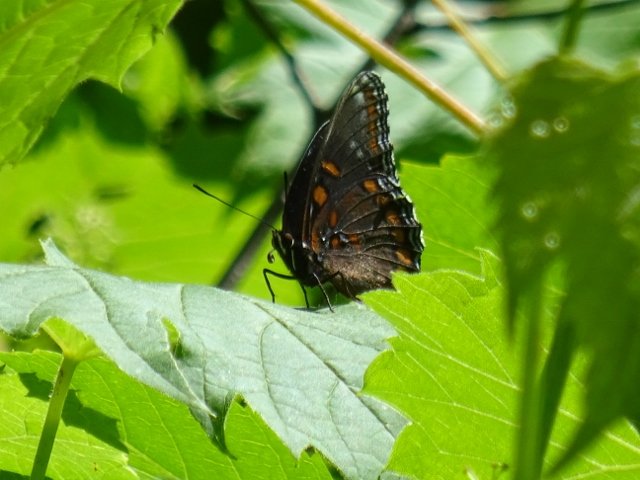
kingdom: Animalia
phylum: Arthropoda
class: Insecta
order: Lepidoptera
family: Nymphalidae
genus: Limenitis
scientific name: Limenitis astyanax
